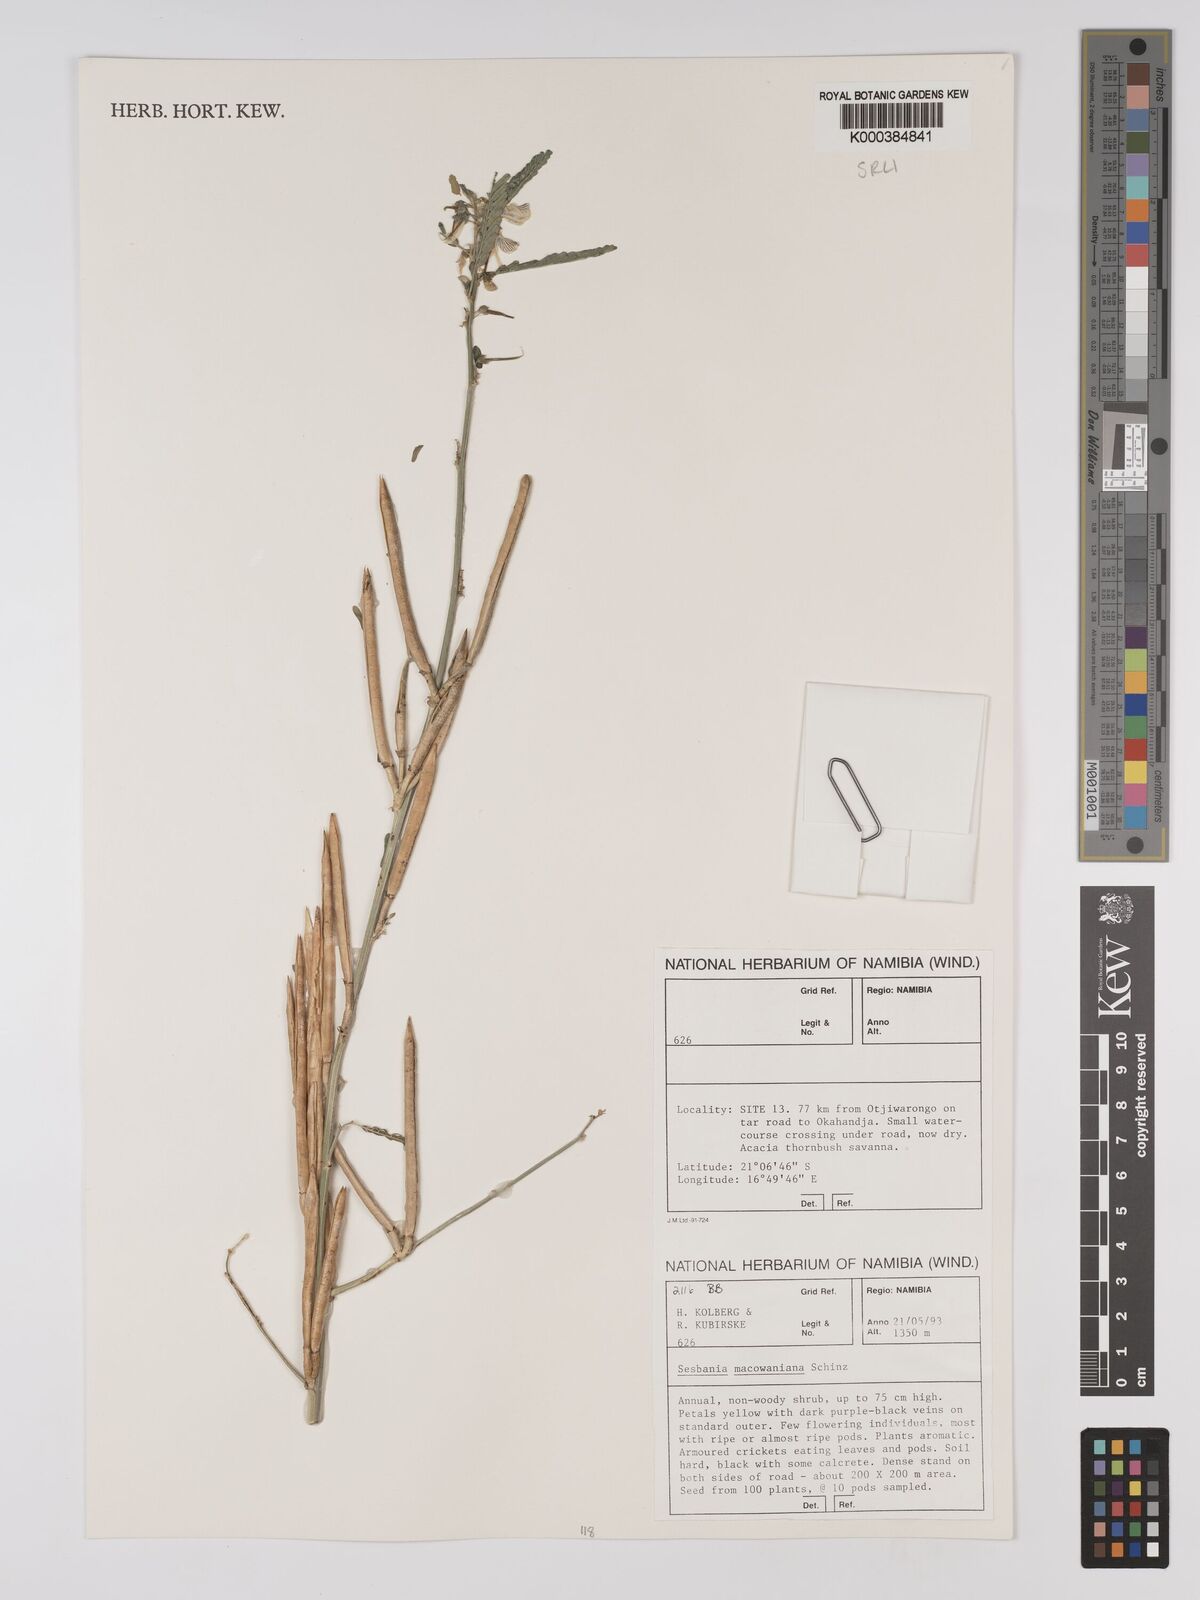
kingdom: Plantae
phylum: Tracheophyta
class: Magnoliopsida
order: Fabales
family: Fabaceae
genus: Sesbania
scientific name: Sesbania macowaniana
